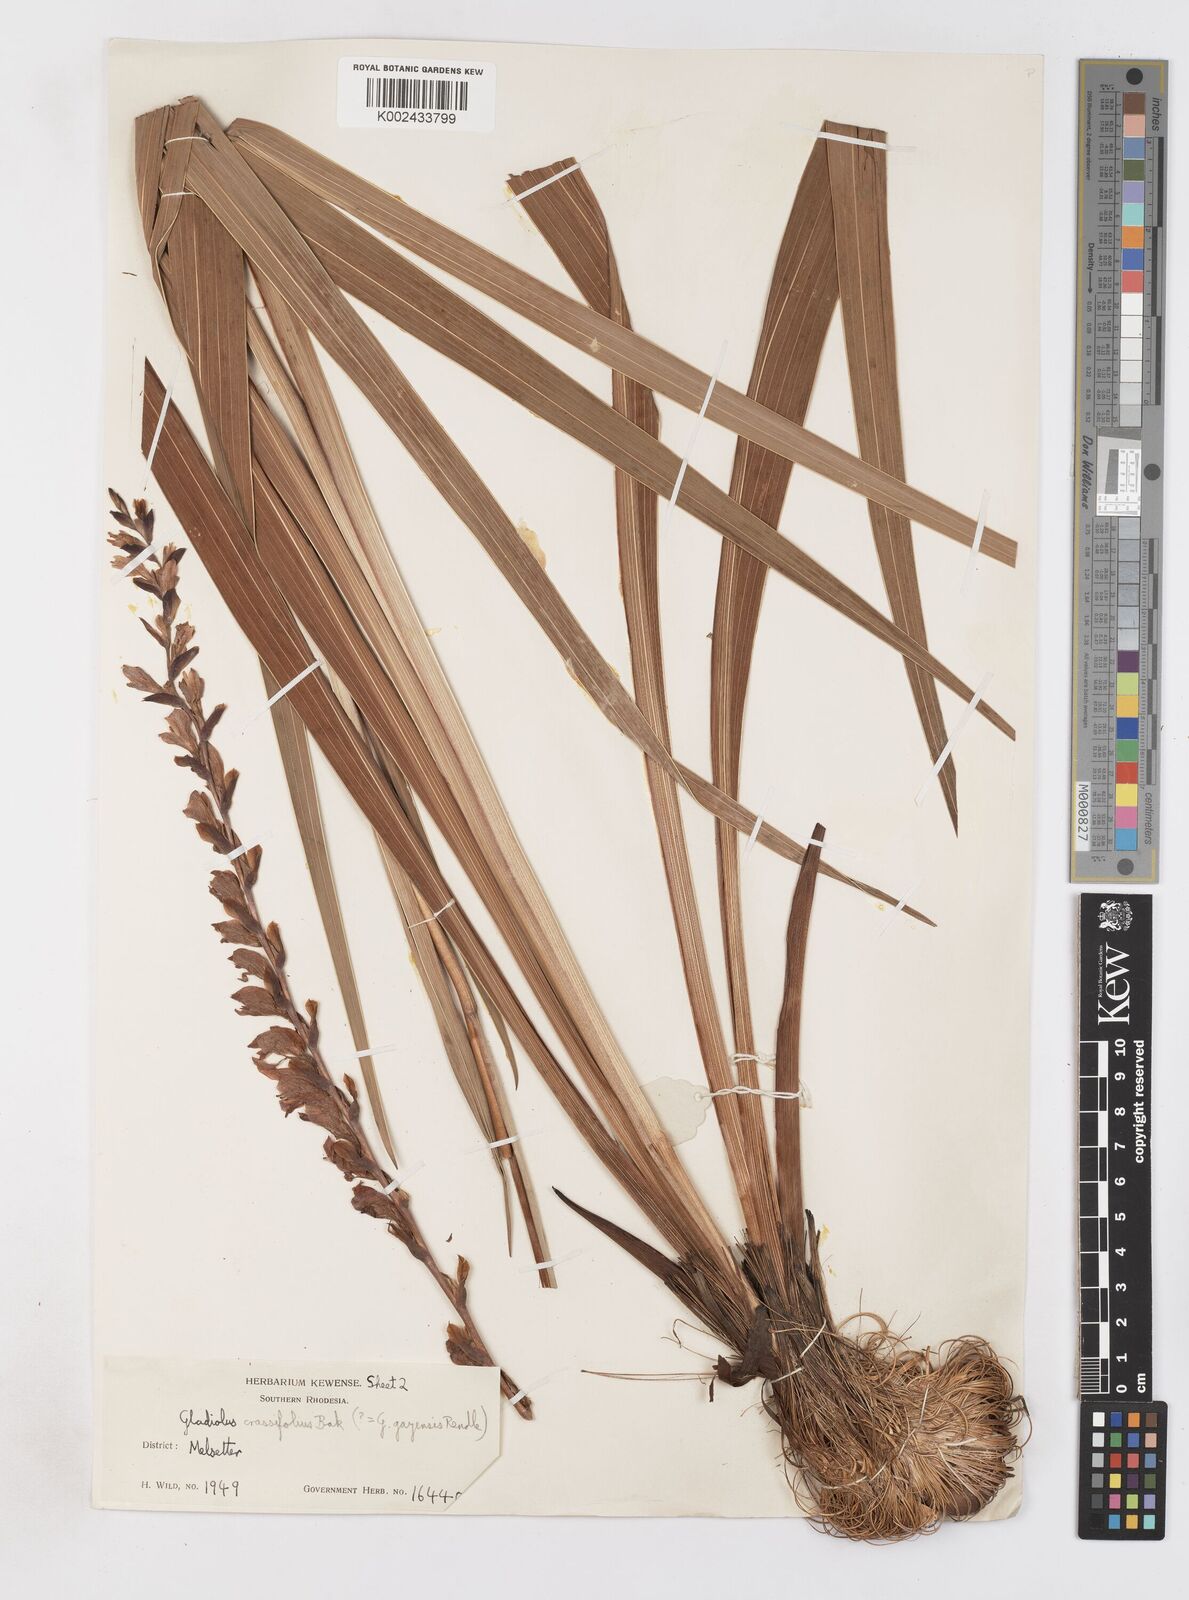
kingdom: Plantae
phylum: Tracheophyta
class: Liliopsida
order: Asparagales
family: Iridaceae
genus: Gladiolus
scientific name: Gladiolus crassifolius
